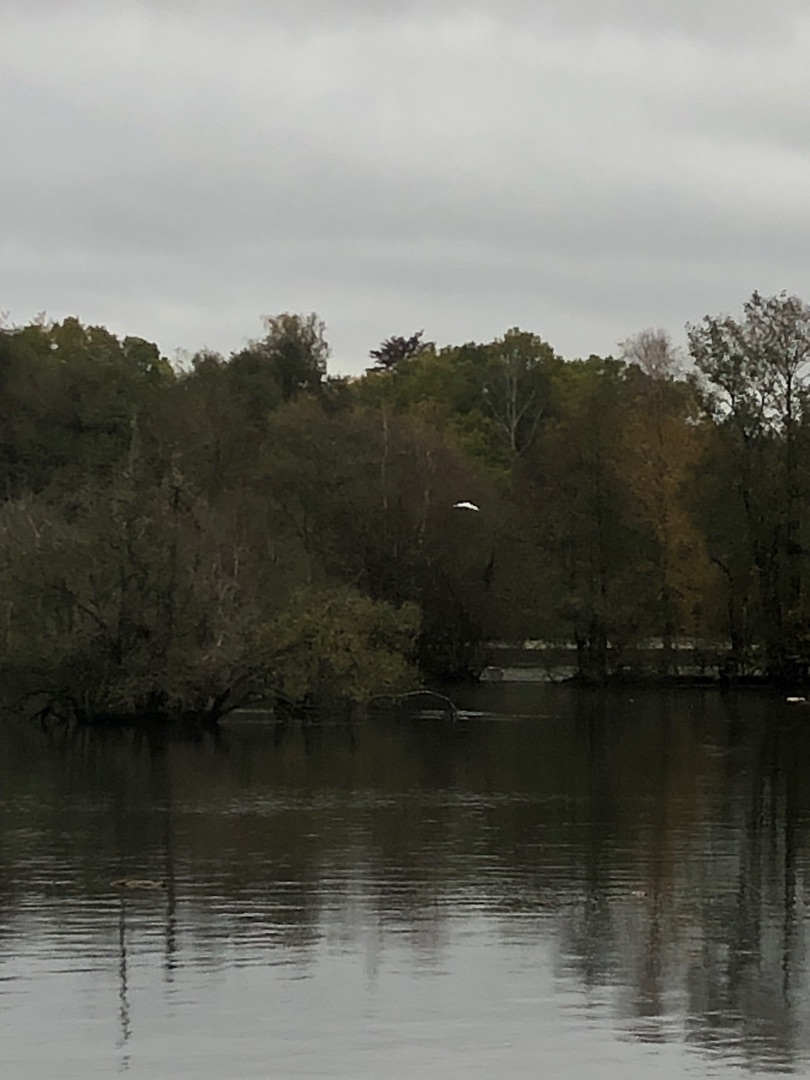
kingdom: Animalia
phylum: Chordata
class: Aves
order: Pelecaniformes
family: Ardeidae
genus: Ardea
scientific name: Ardea alba
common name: Sølvhejre
